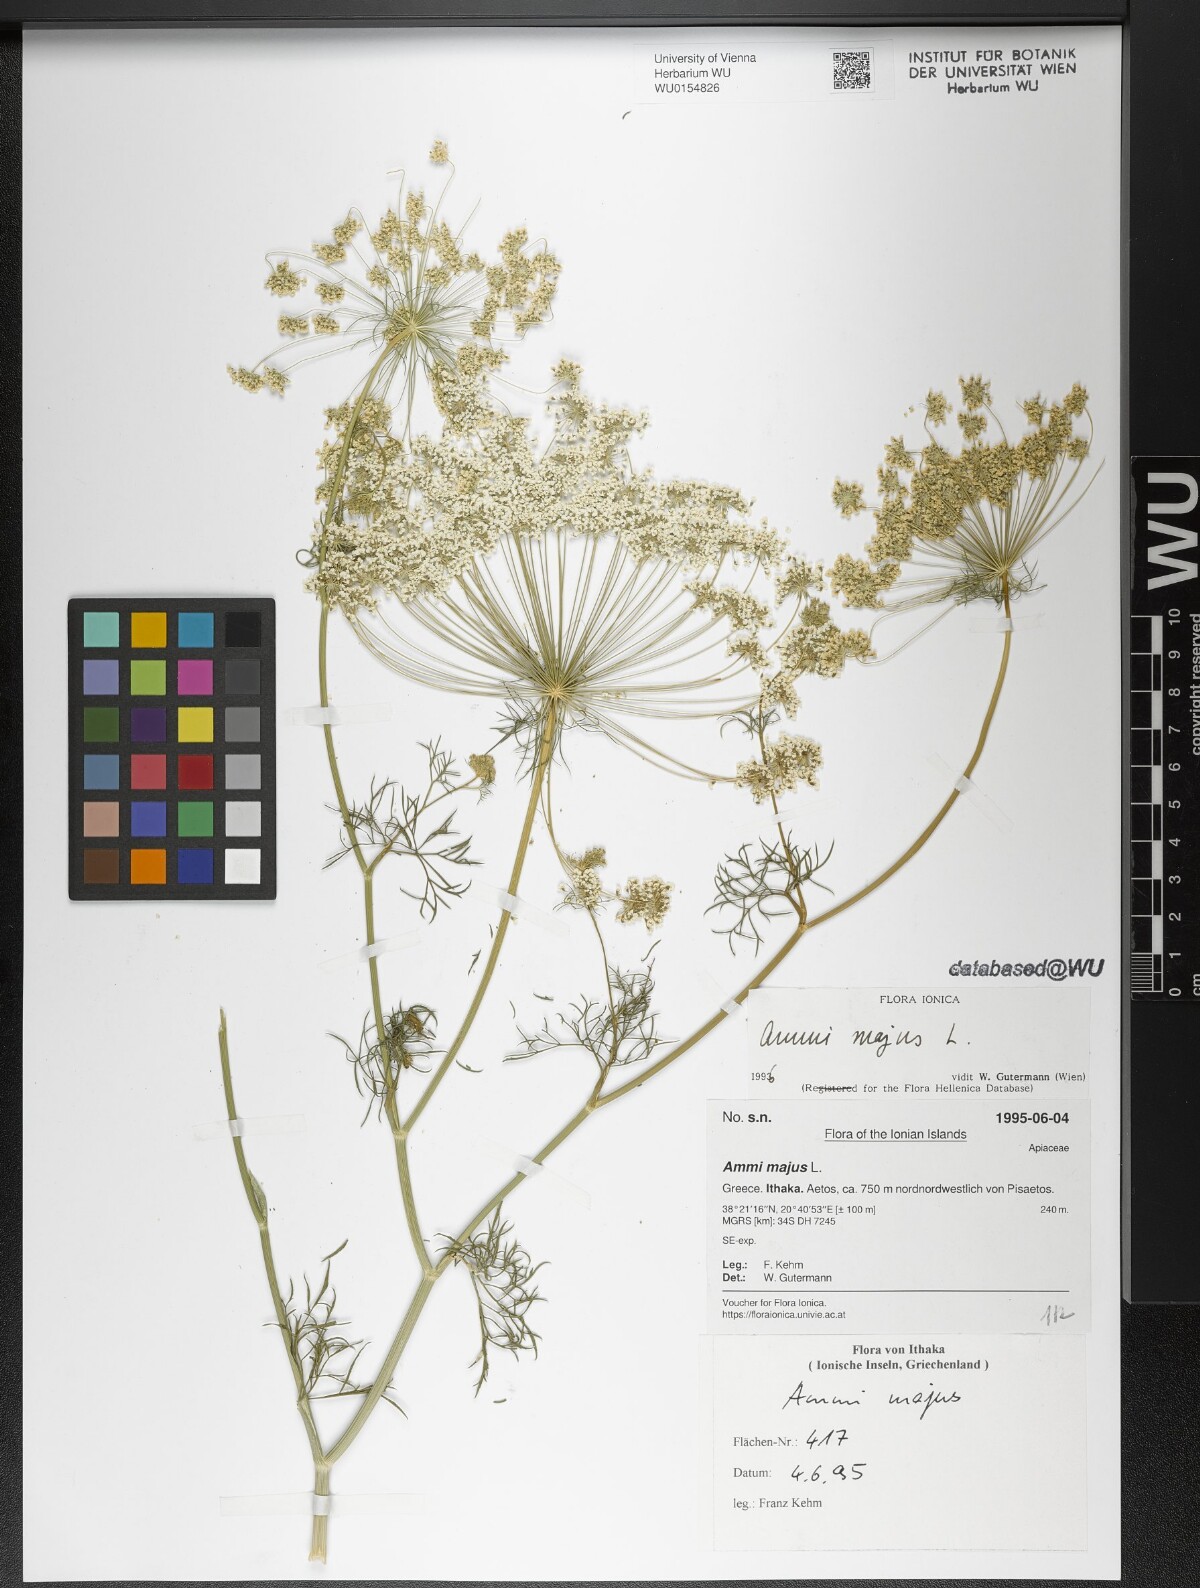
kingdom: Plantae
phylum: Tracheophyta
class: Magnoliopsida
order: Apiales
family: Apiaceae
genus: Ammi
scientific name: Ammi majus
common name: Bullwort
